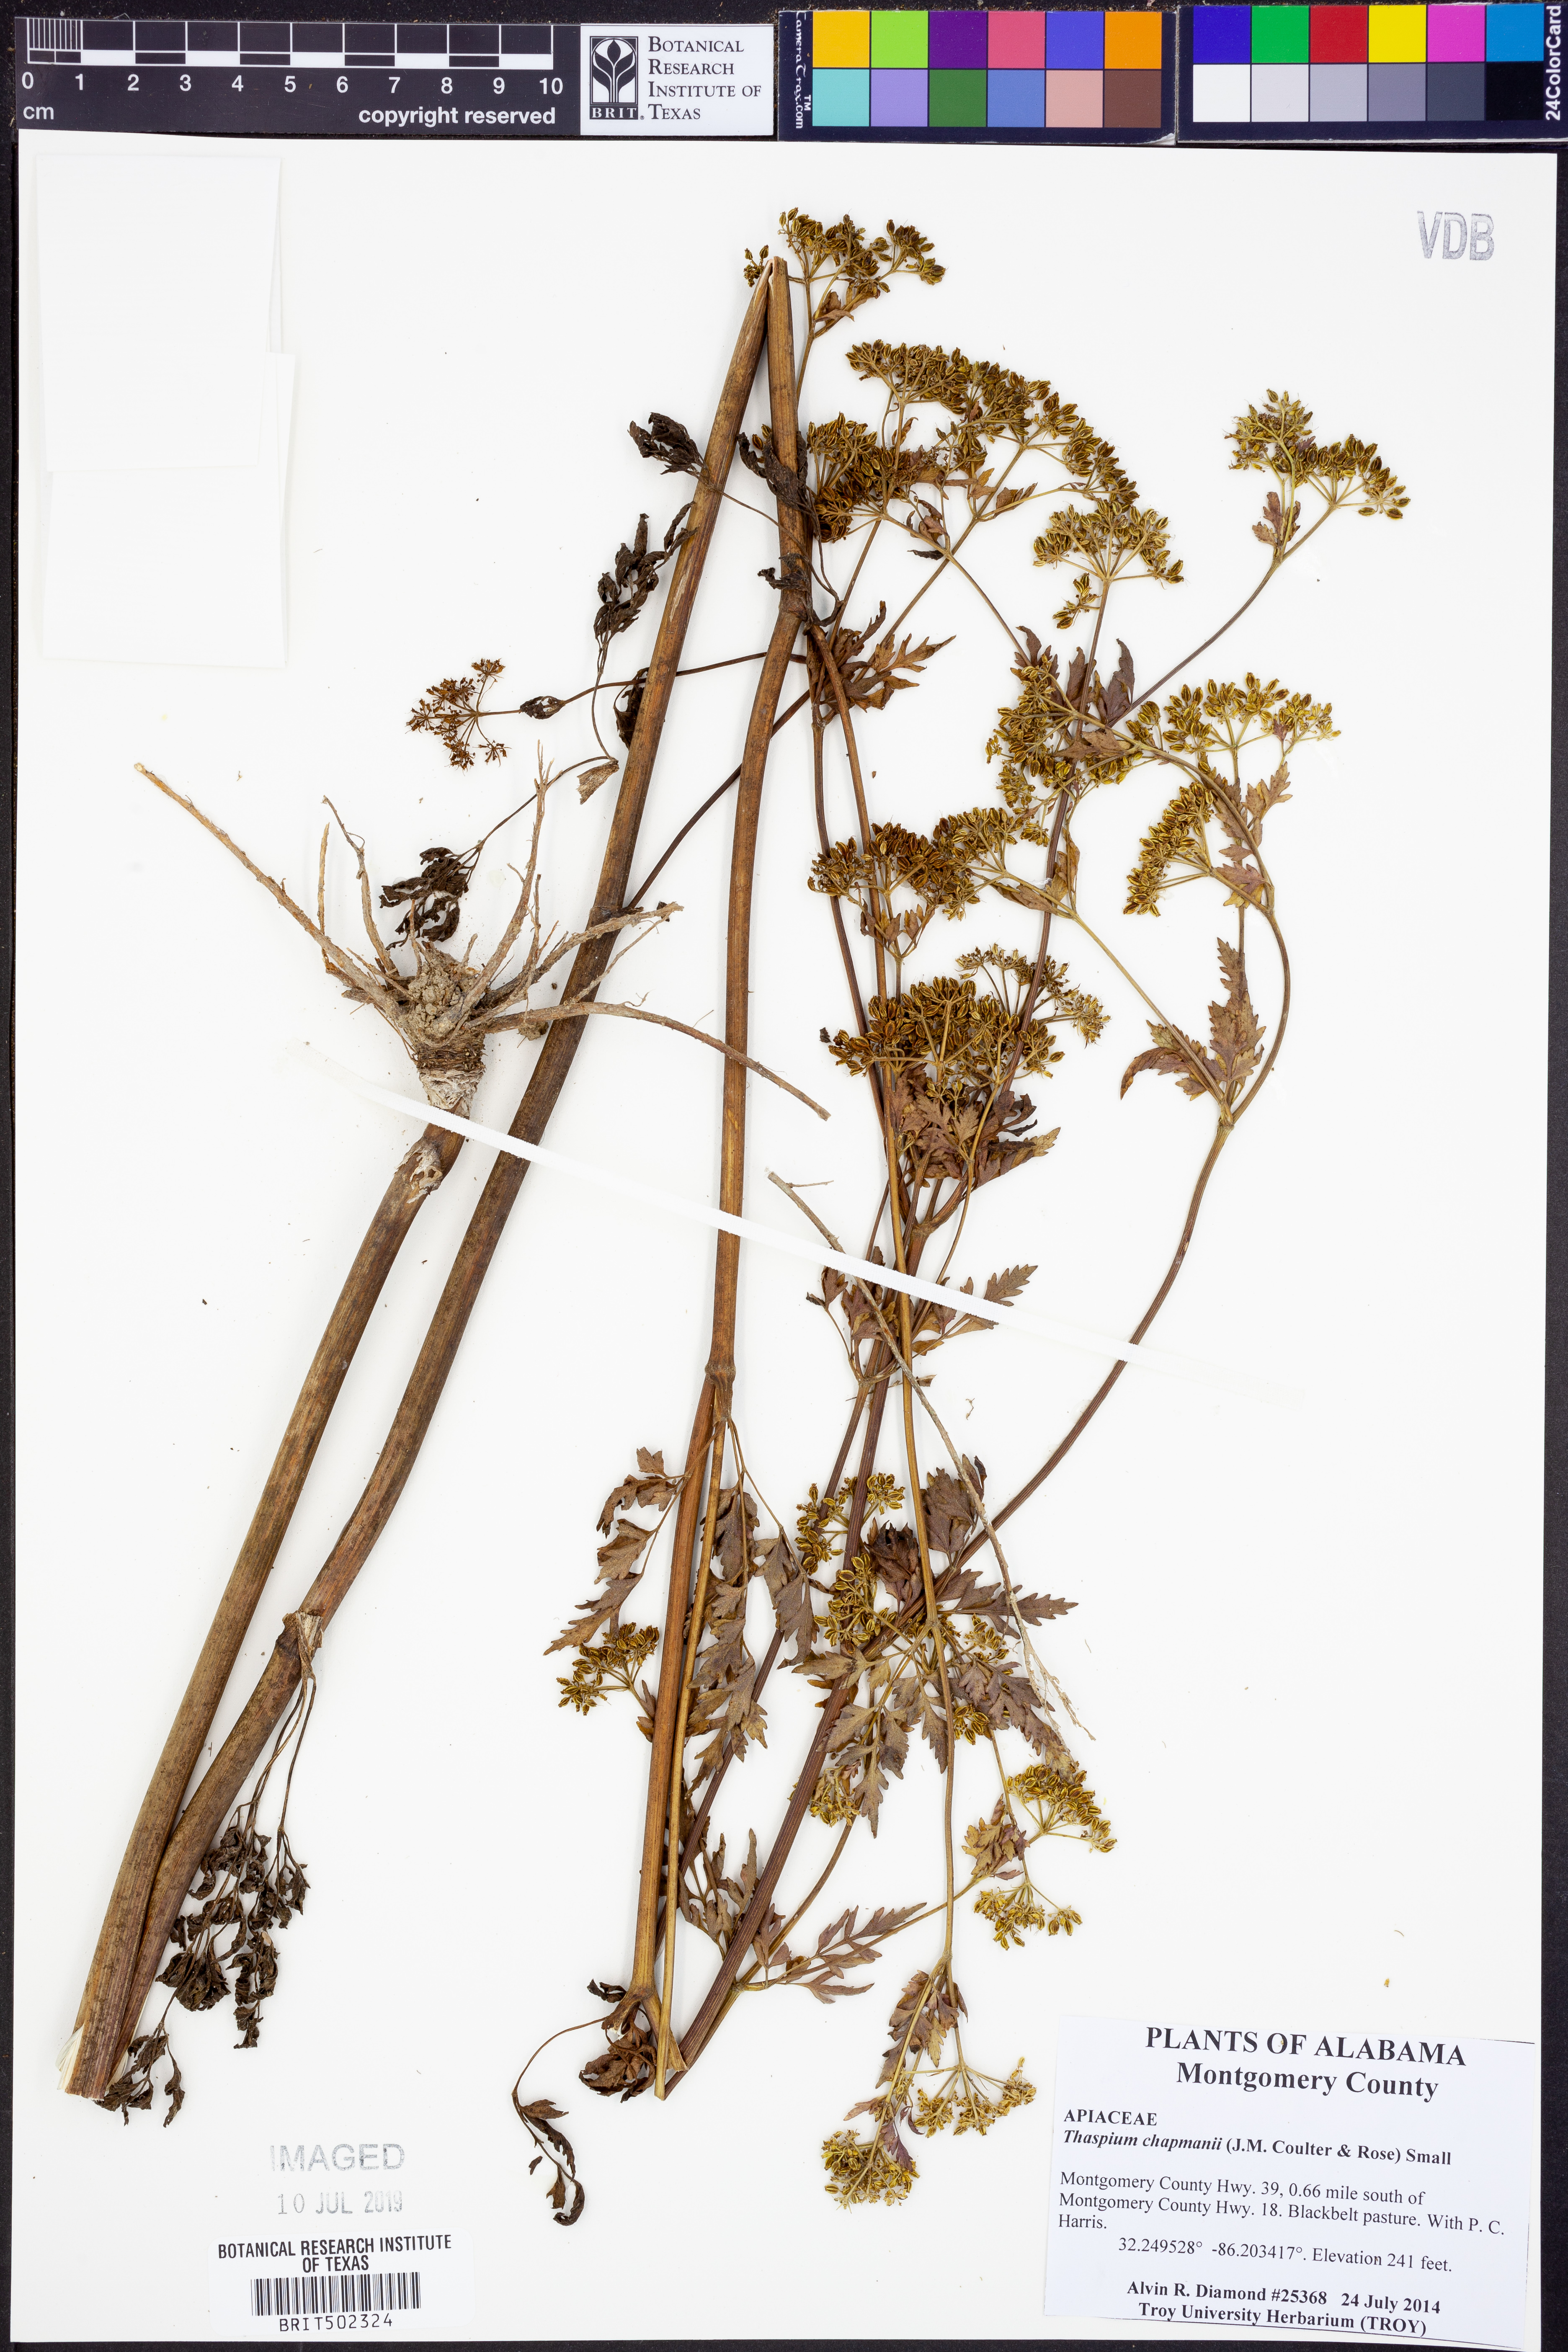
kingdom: Plantae
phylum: Tracheophyta
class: Magnoliopsida
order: Apiales
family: Apiaceae
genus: Thaspium
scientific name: Thaspium barbinode
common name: Bearded meadow-parsnip
